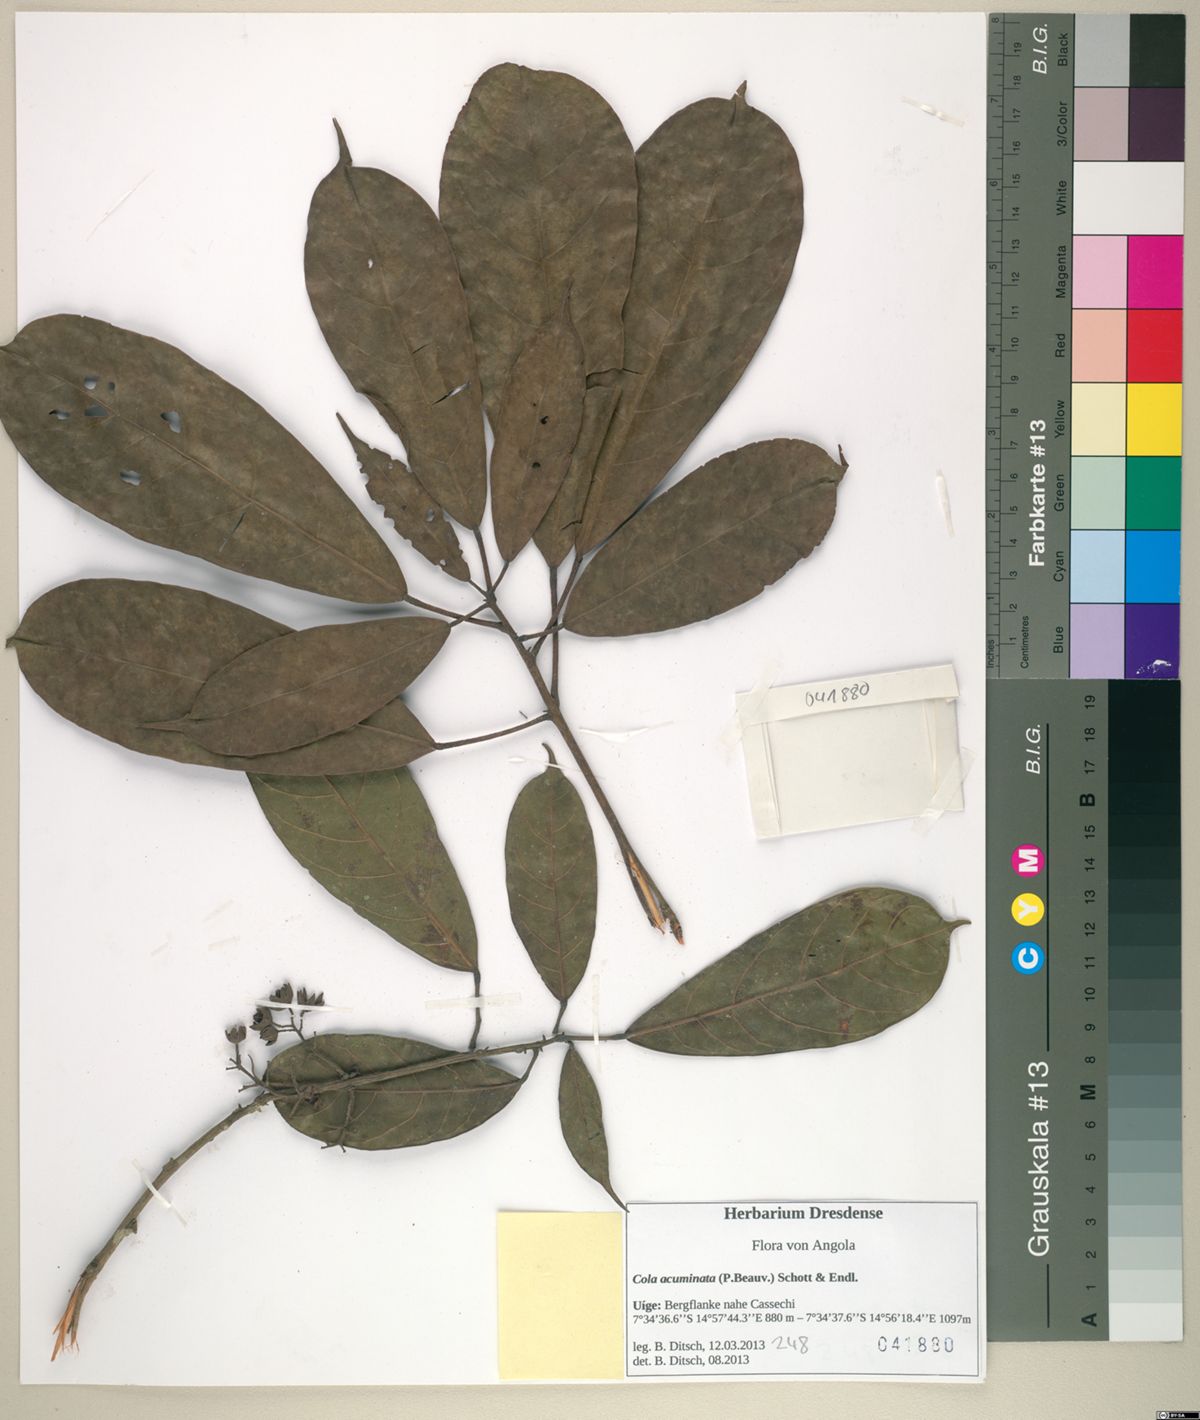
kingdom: Plantae
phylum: Tracheophyta
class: Magnoliopsida
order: Malvales
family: Malvaceae
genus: Cola
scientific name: Cola acuminata
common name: True kola
